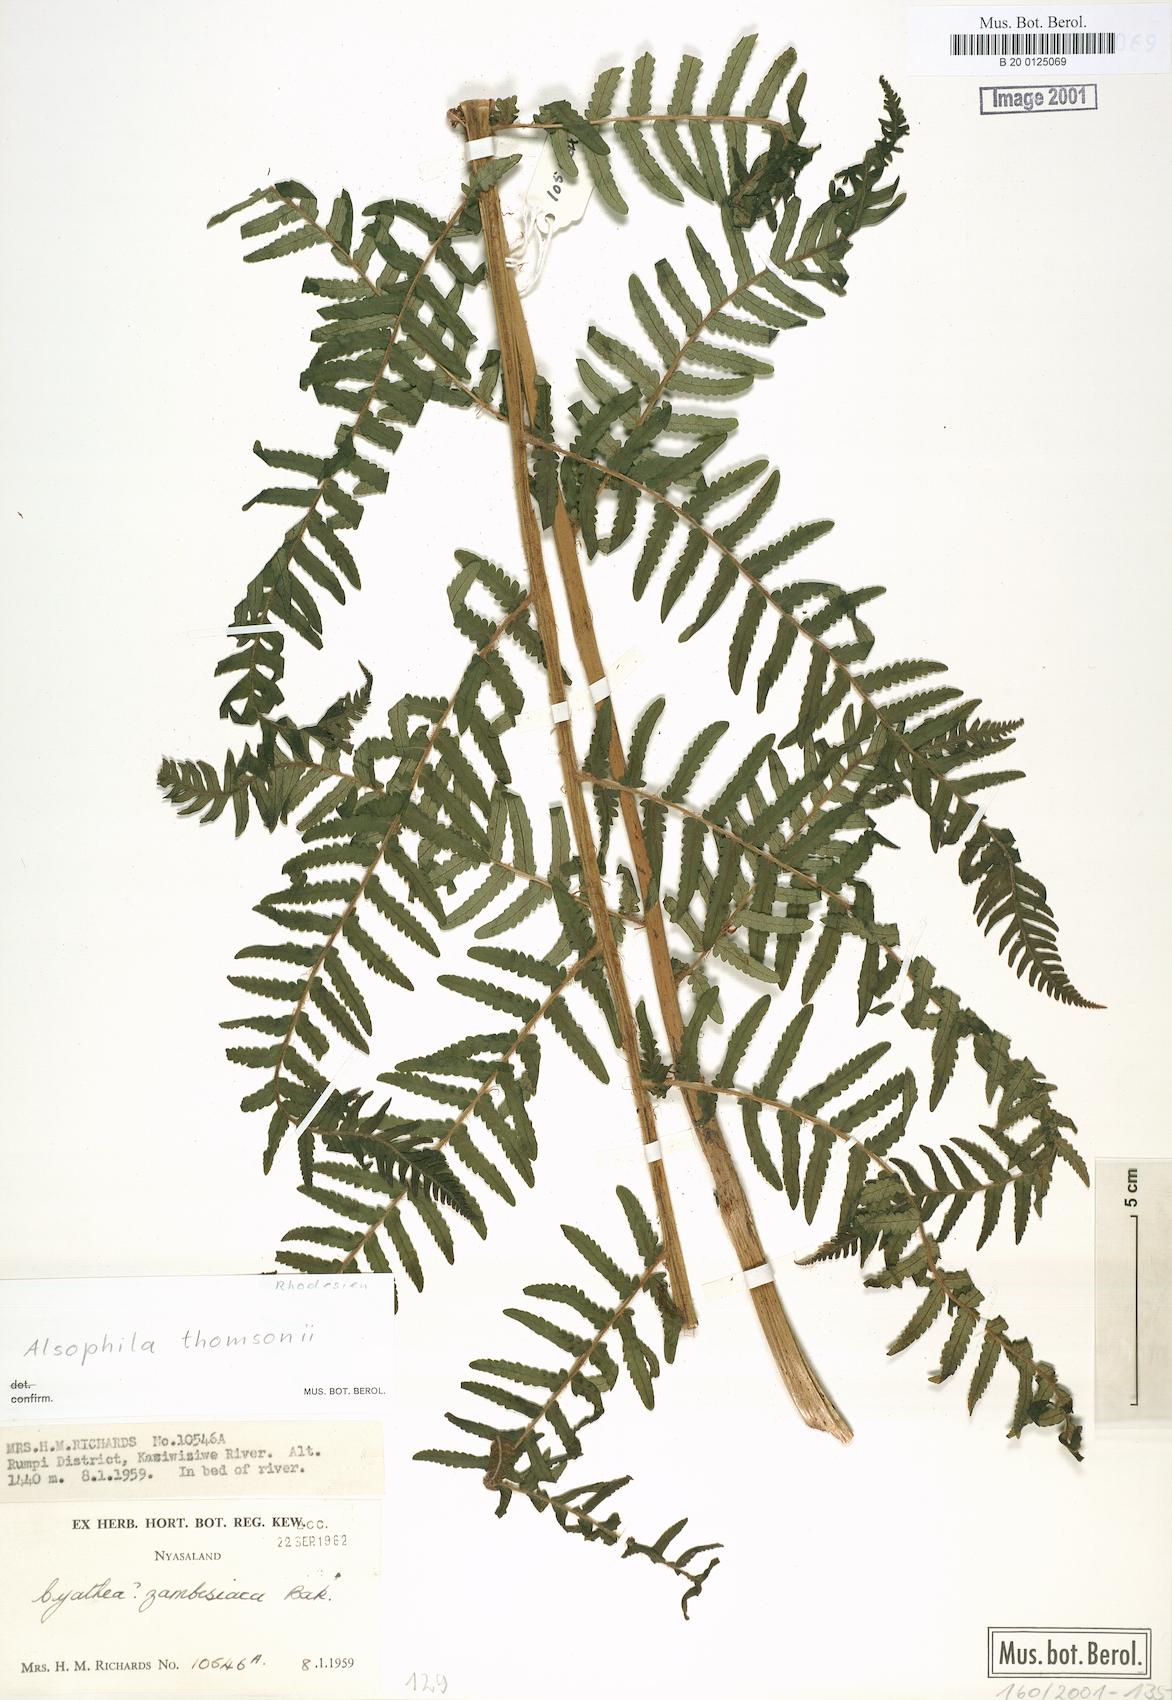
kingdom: Plantae
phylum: Tracheophyta
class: Polypodiopsida
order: Cyatheales
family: Cyatheaceae
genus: Alsophila
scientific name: Alsophila camerooniana
